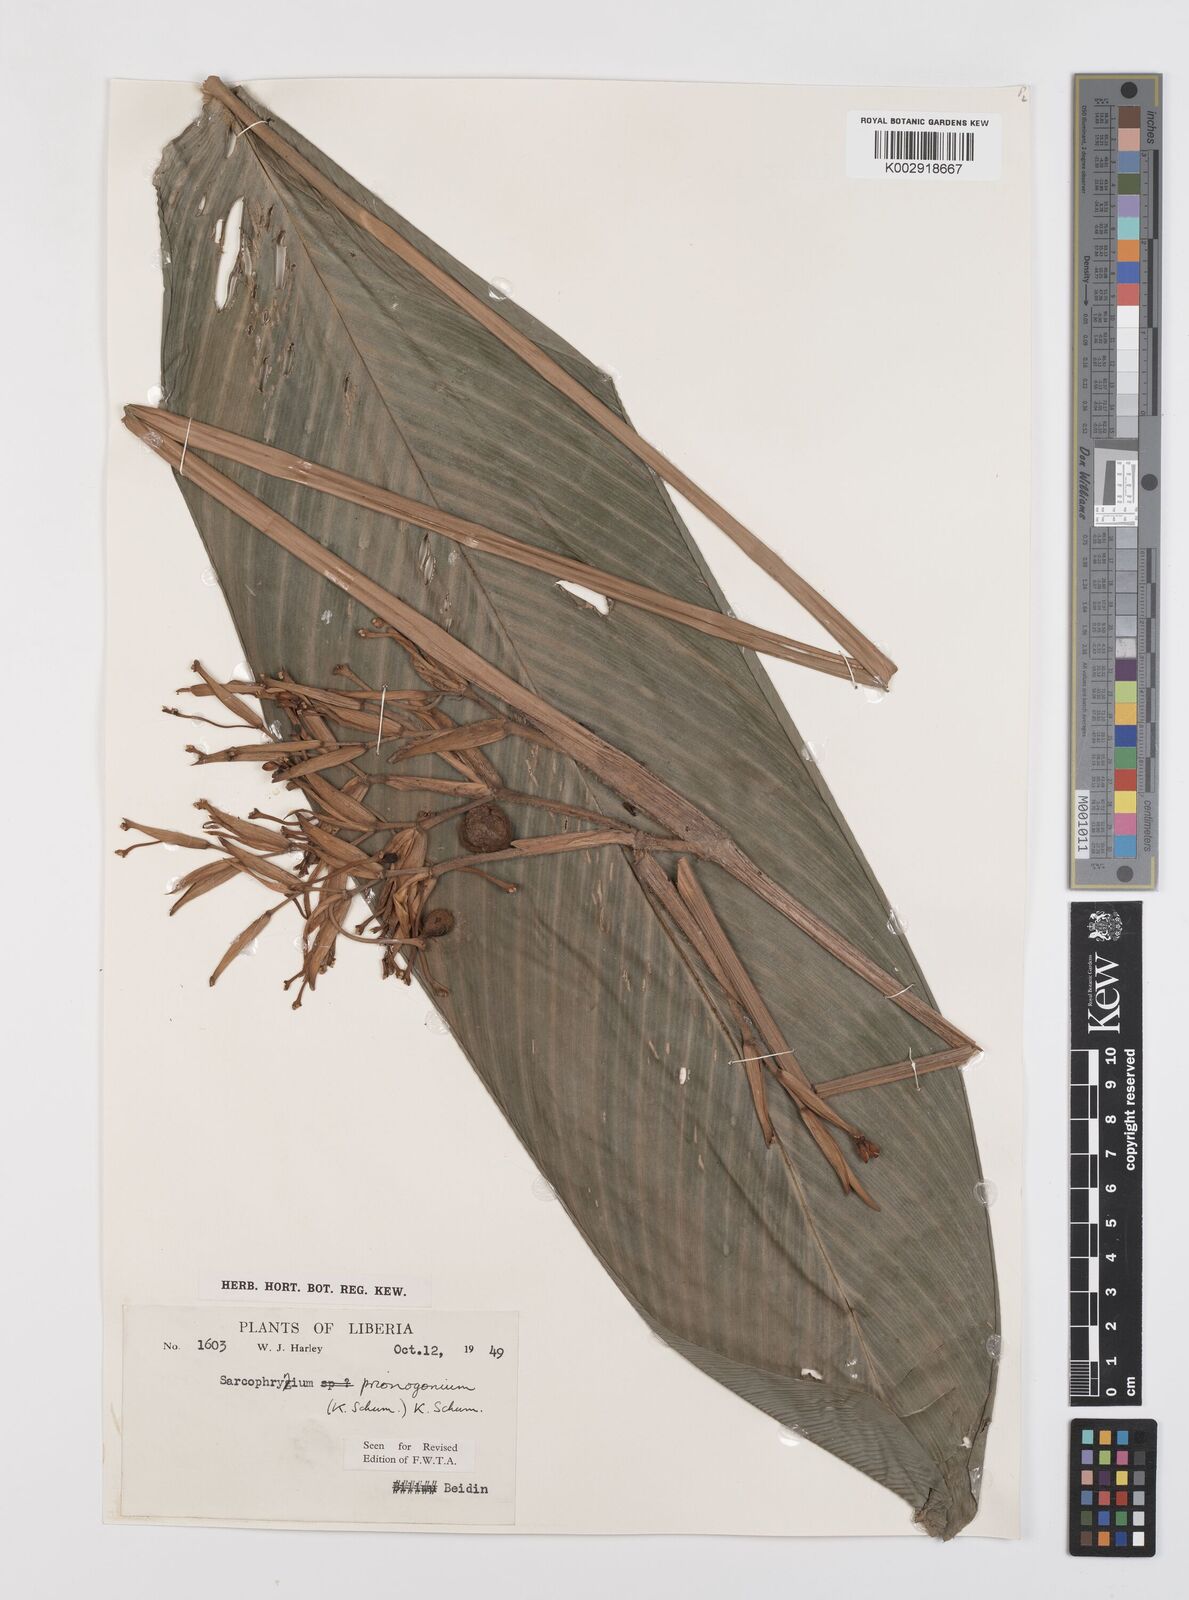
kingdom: Plantae
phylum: Tracheophyta
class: Liliopsida
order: Zingiberales
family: Marantaceae
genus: Sarcophrynium
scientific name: Sarcophrynium prionogonium
